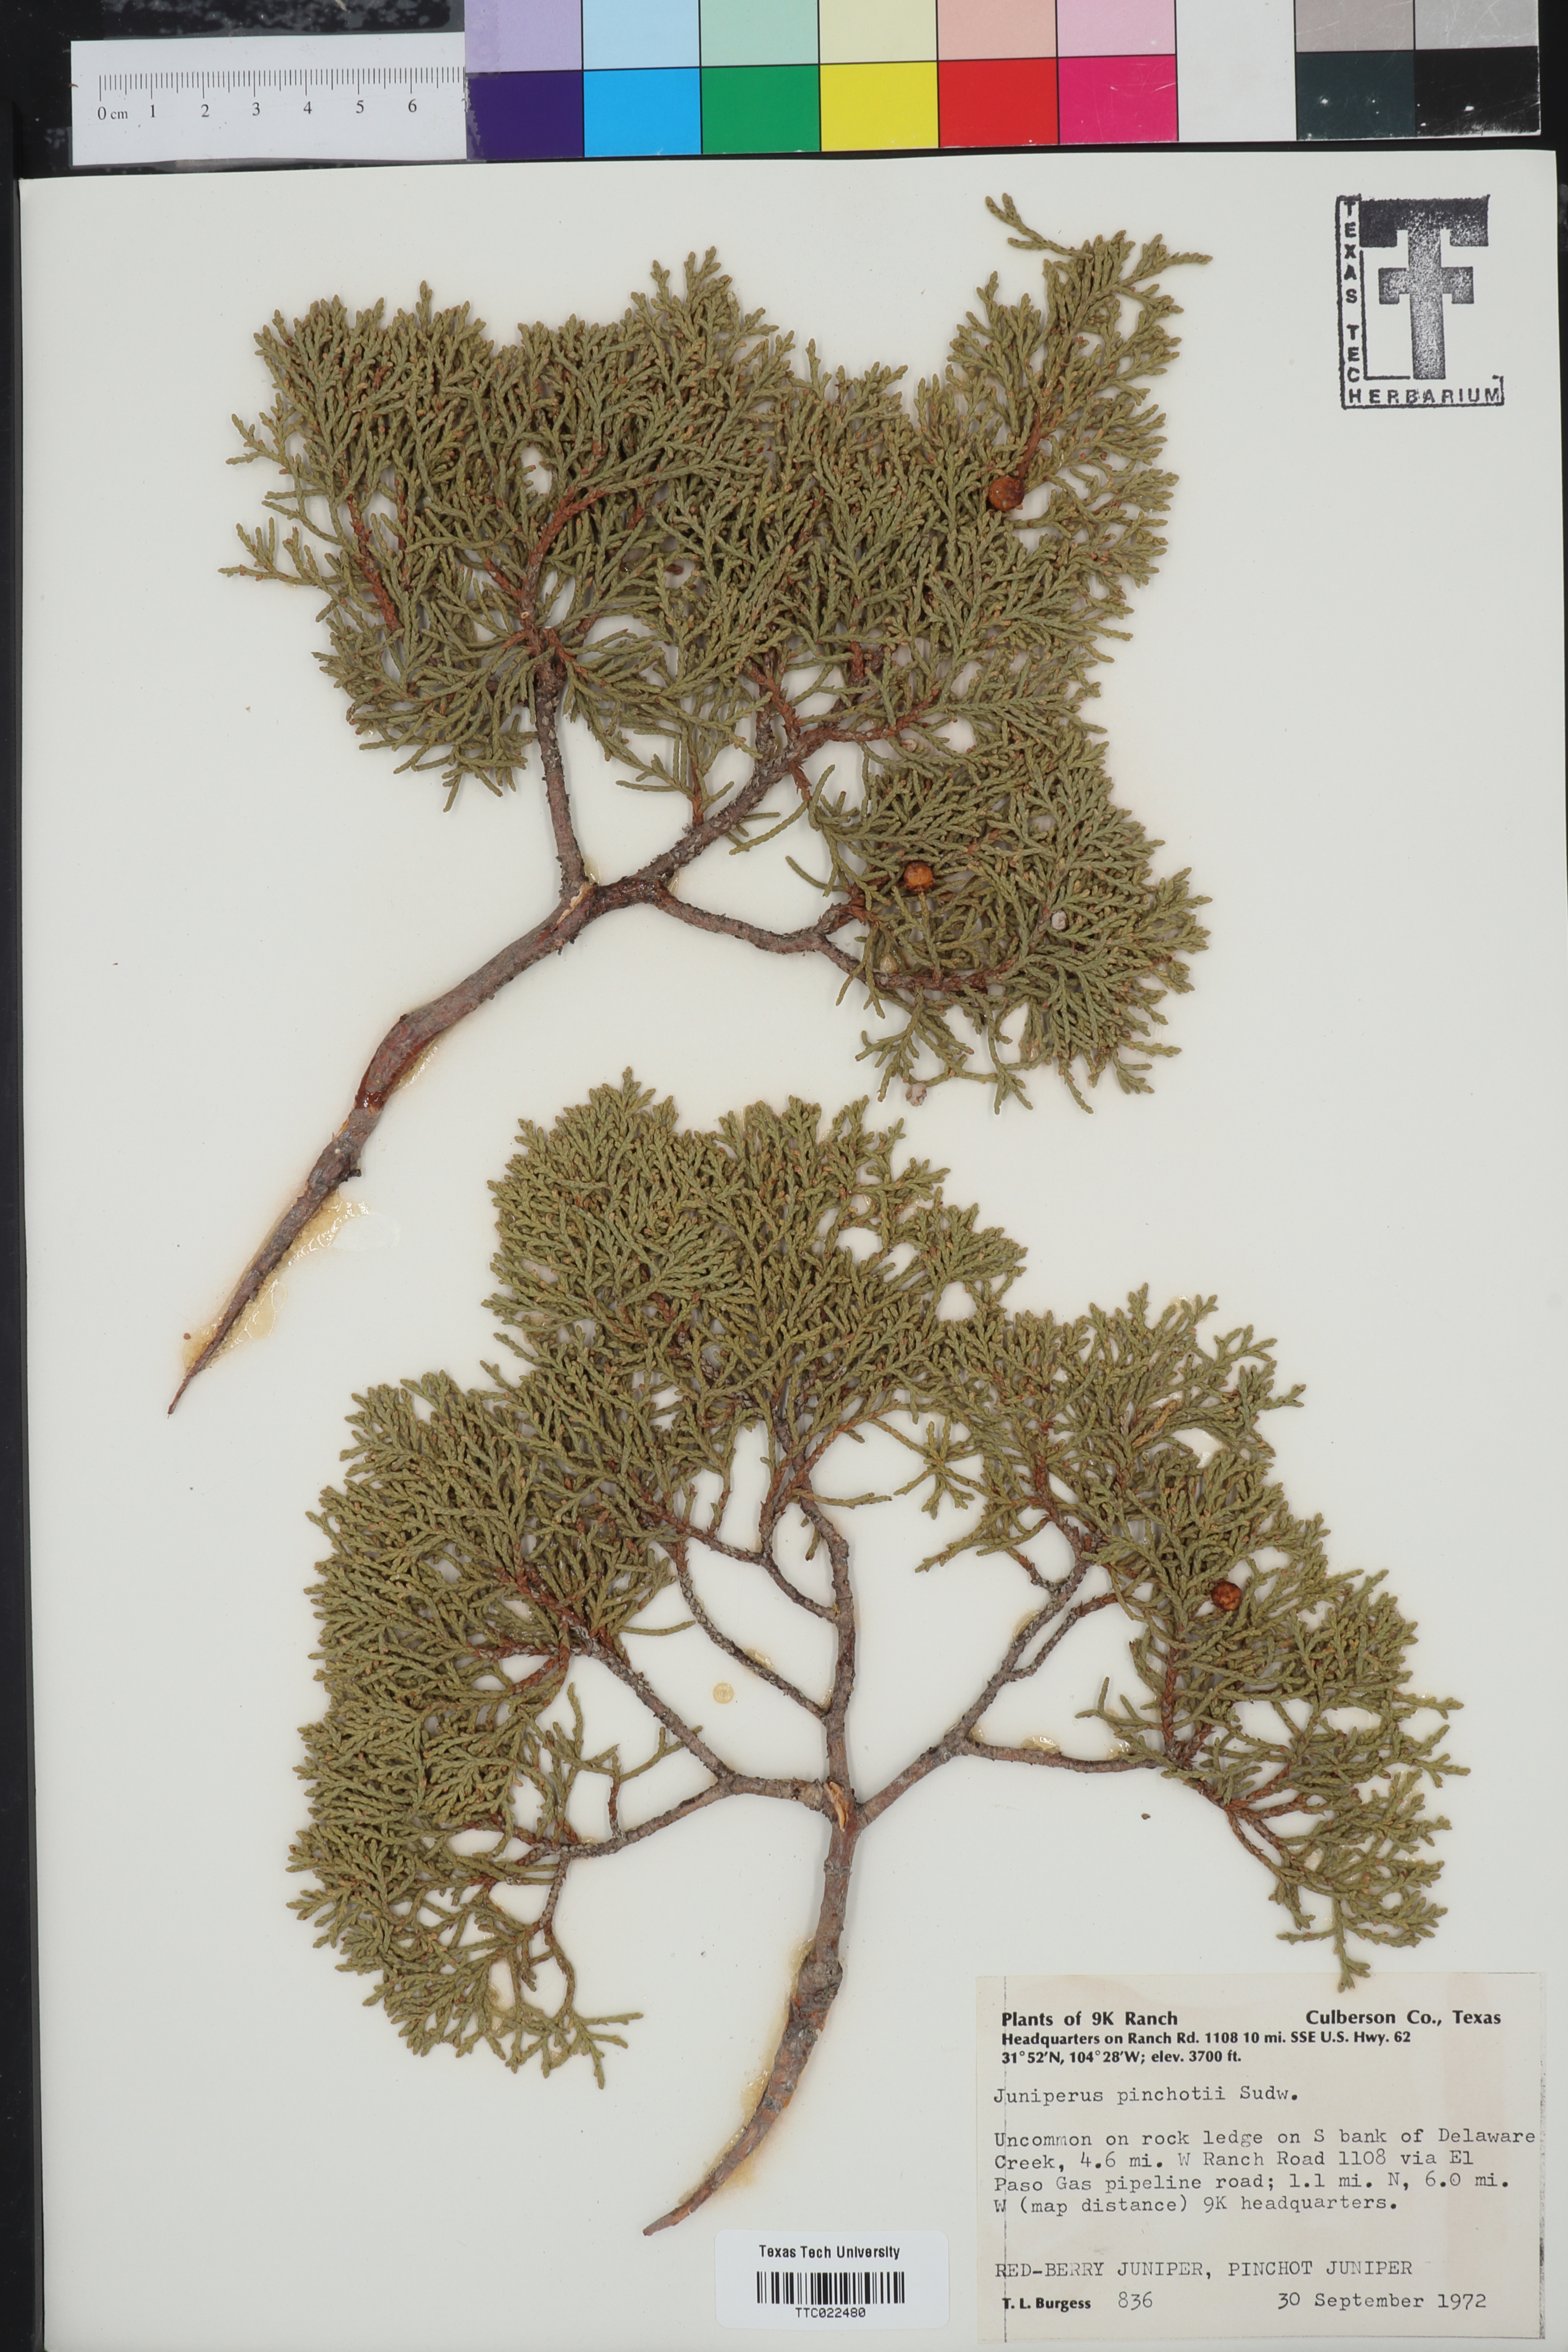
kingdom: Plantae
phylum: Tracheophyta
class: Pinopsida
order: Pinales
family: Cupressaceae
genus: Juniperus
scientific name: Juniperus pinchotii
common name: Pinchot juniper
